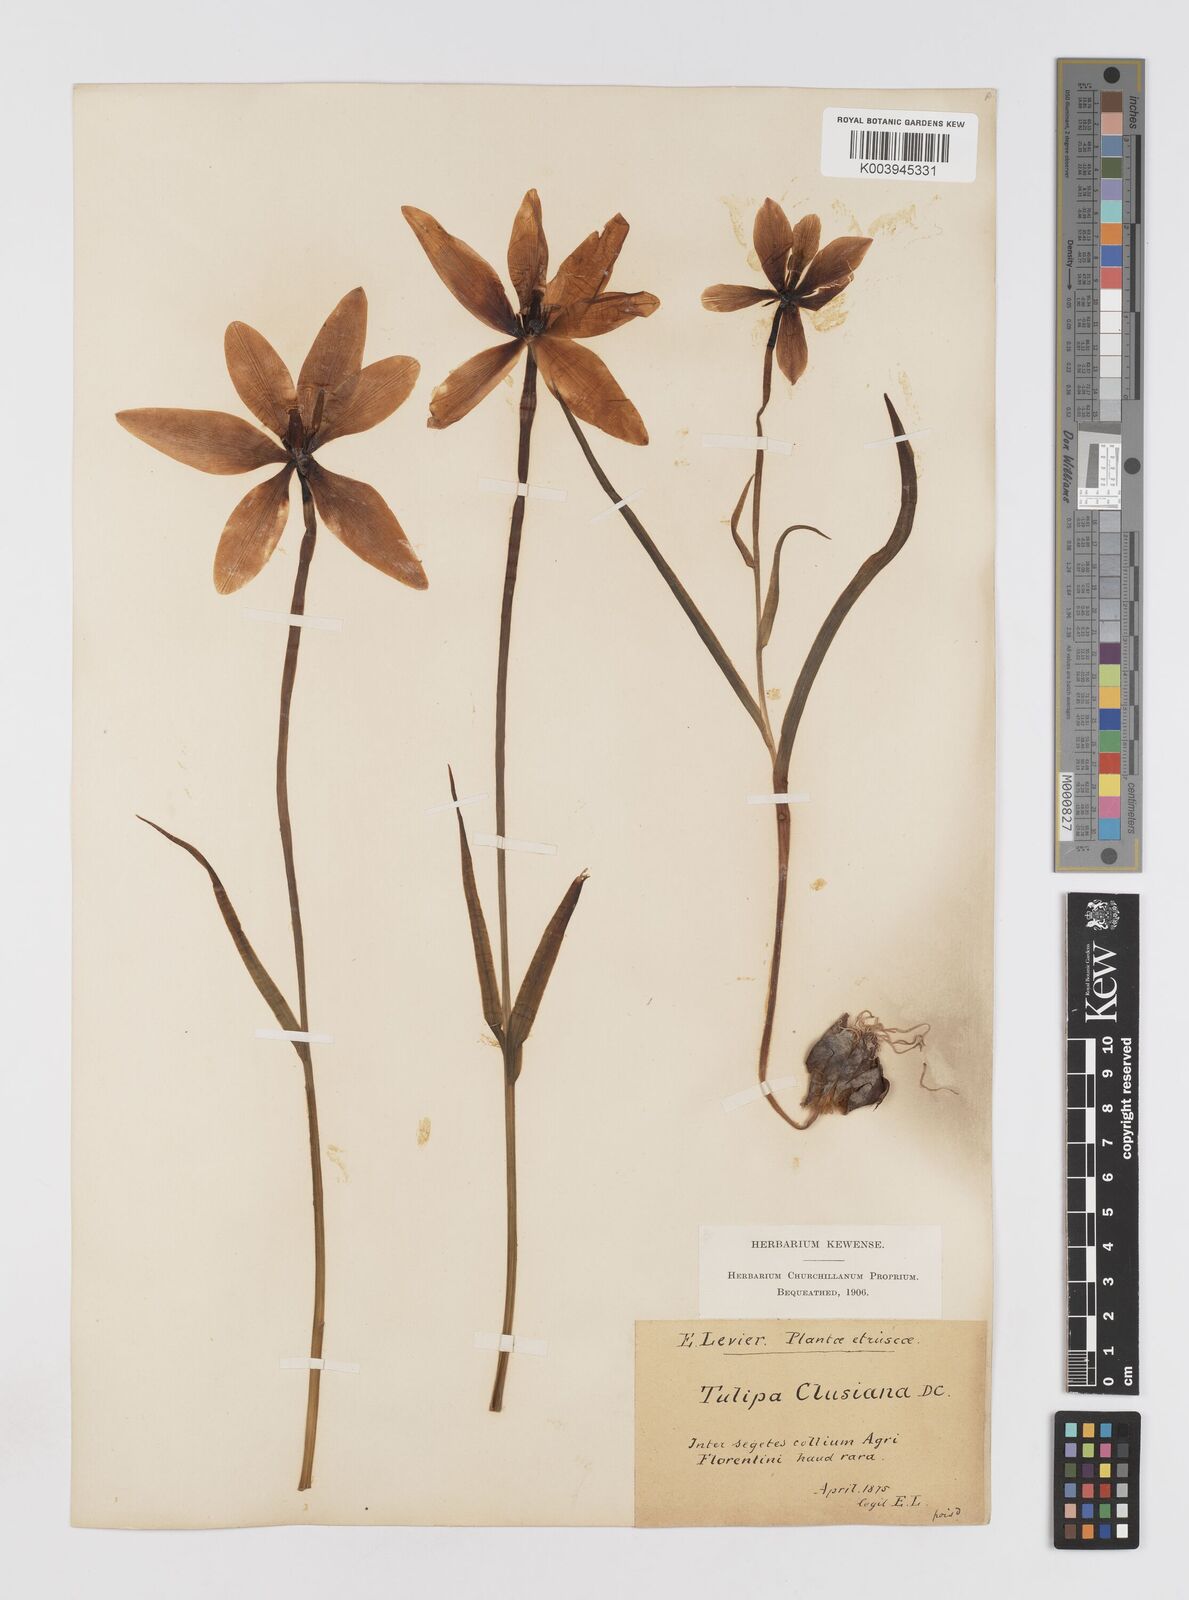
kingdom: Plantae
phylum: Tracheophyta
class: Liliopsida
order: Liliales
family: Liliaceae
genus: Tulipa
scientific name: Tulipa clusiana
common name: Lady tulip
